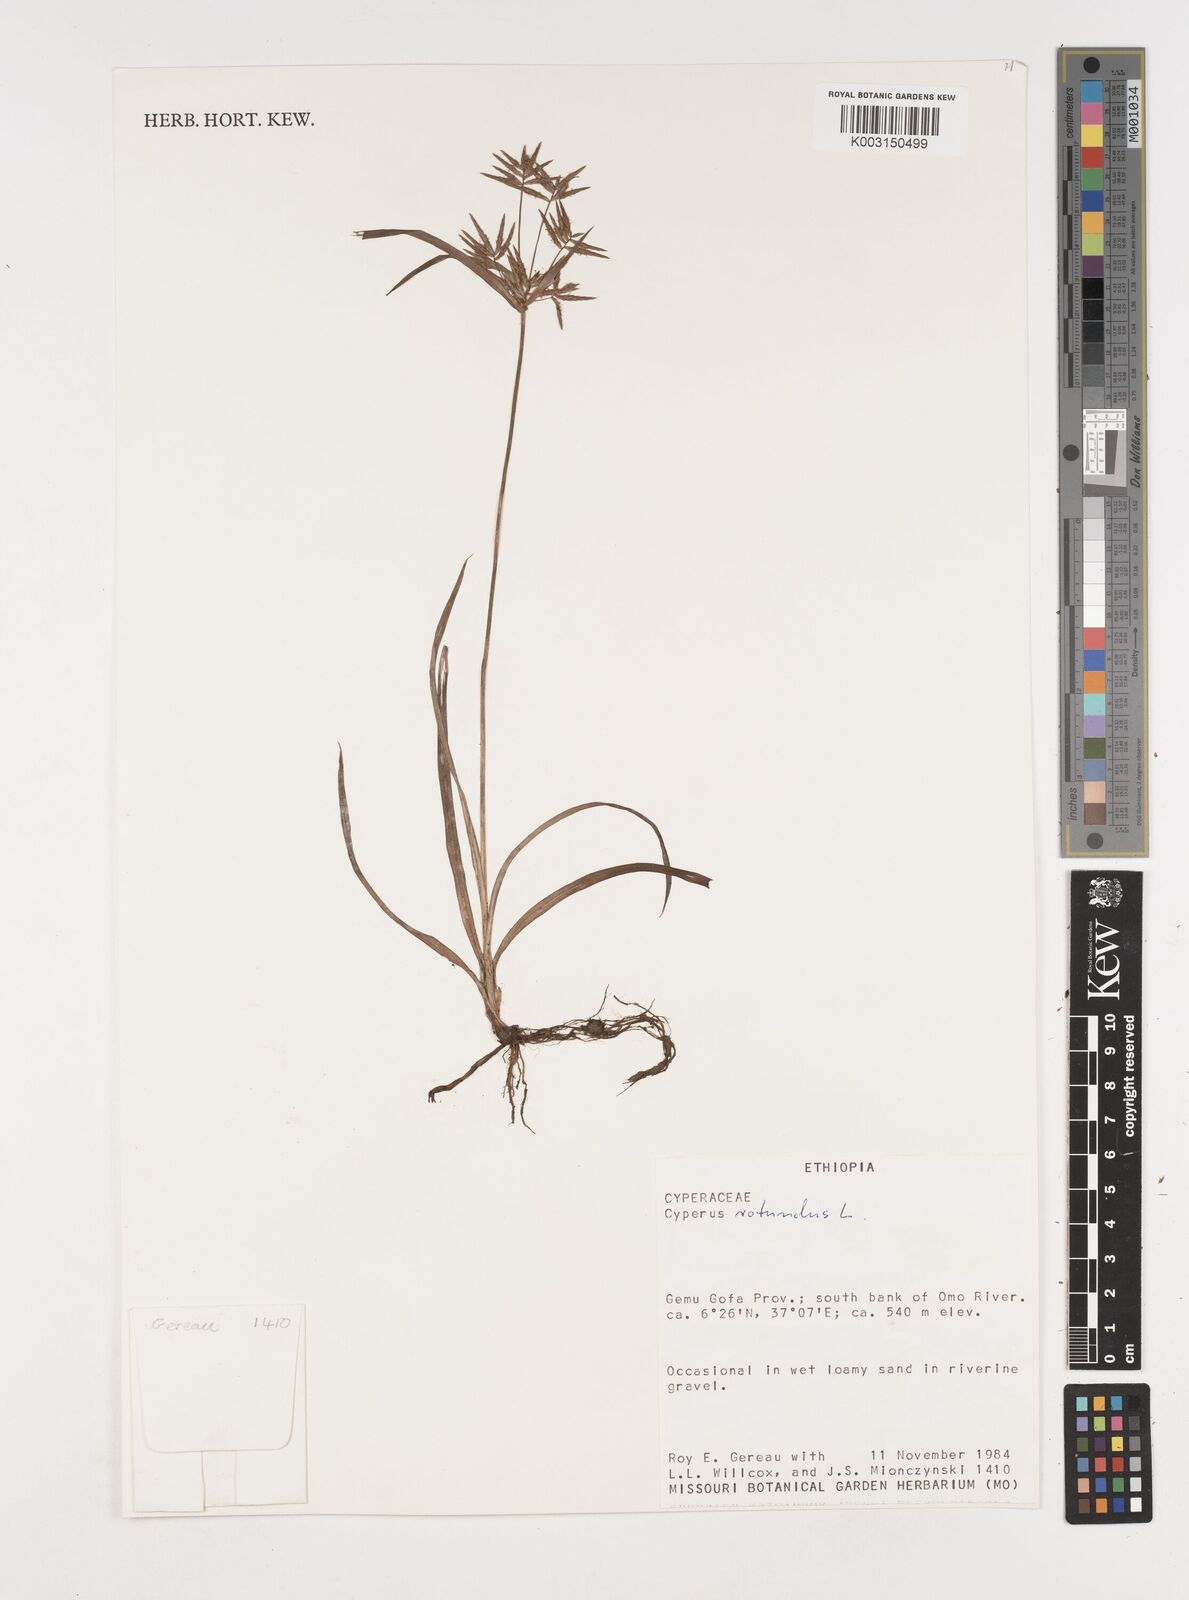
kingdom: Plantae
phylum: Tracheophyta
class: Liliopsida
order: Poales
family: Cyperaceae
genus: Cyperus
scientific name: Cyperus rotundus
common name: Nutgrass
